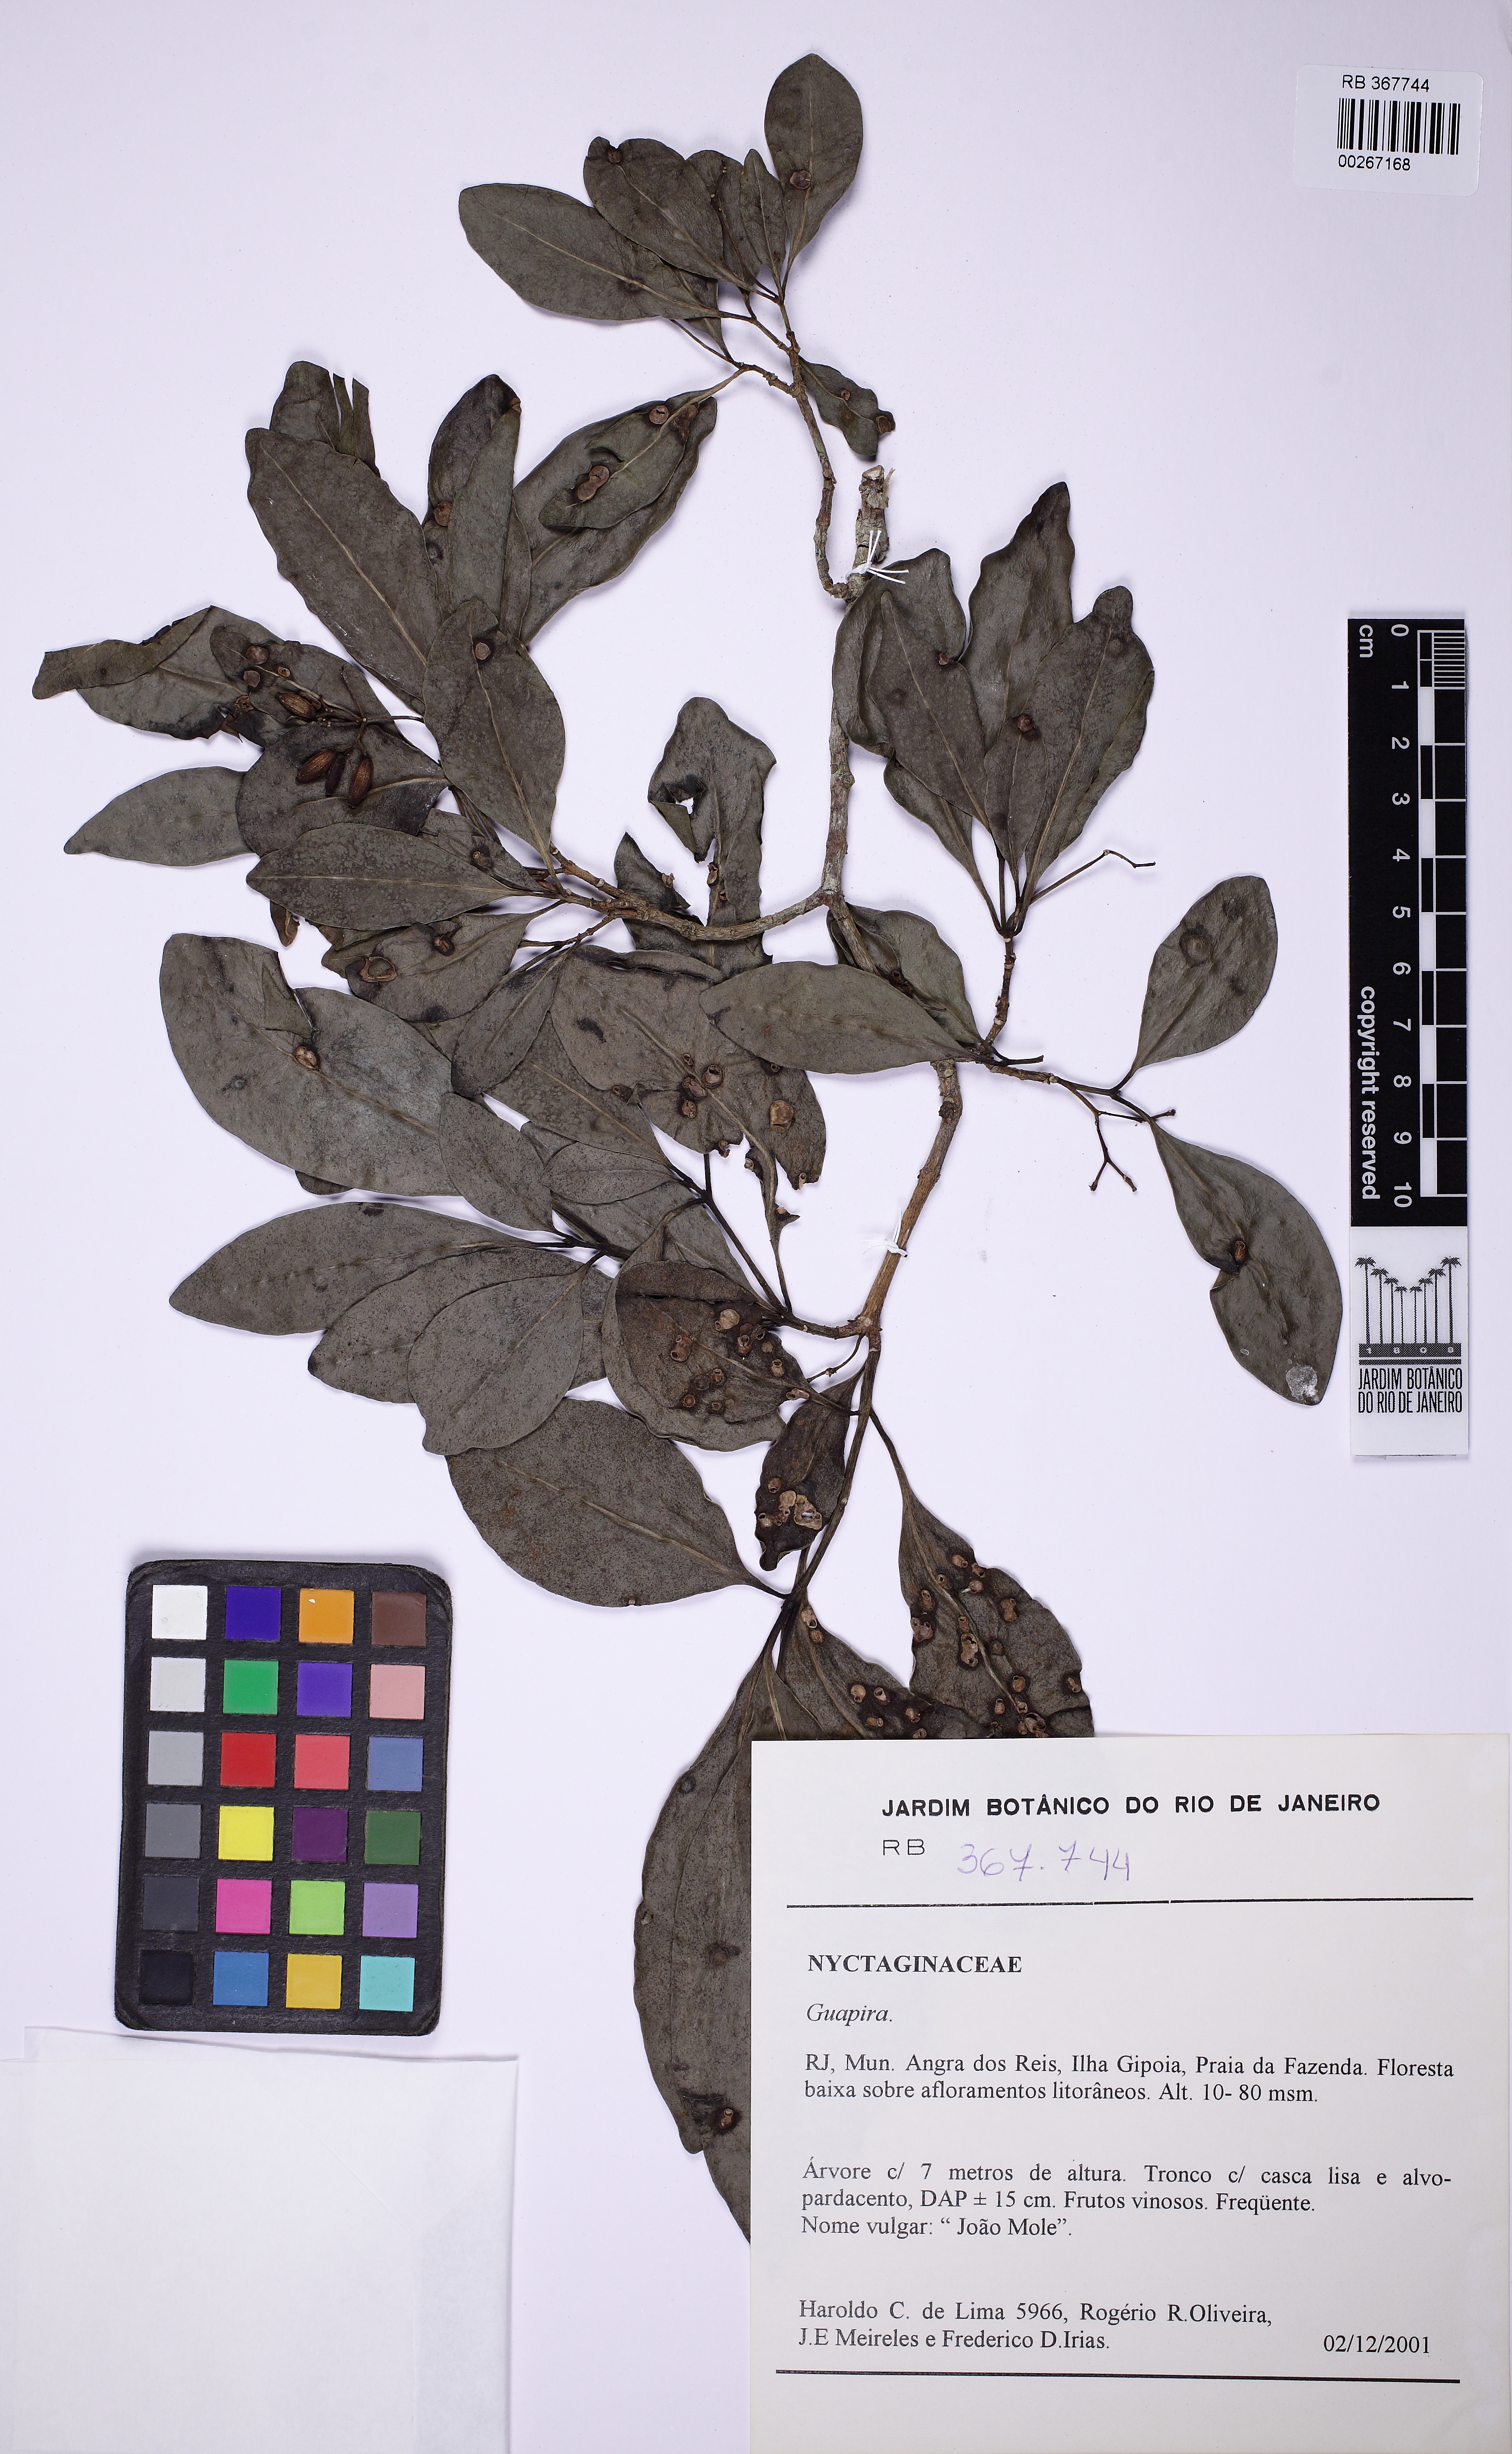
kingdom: Plantae
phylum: Tracheophyta
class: Magnoliopsida
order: Caryophyllales
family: Nyctaginaceae
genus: Guapira
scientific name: Guapira
